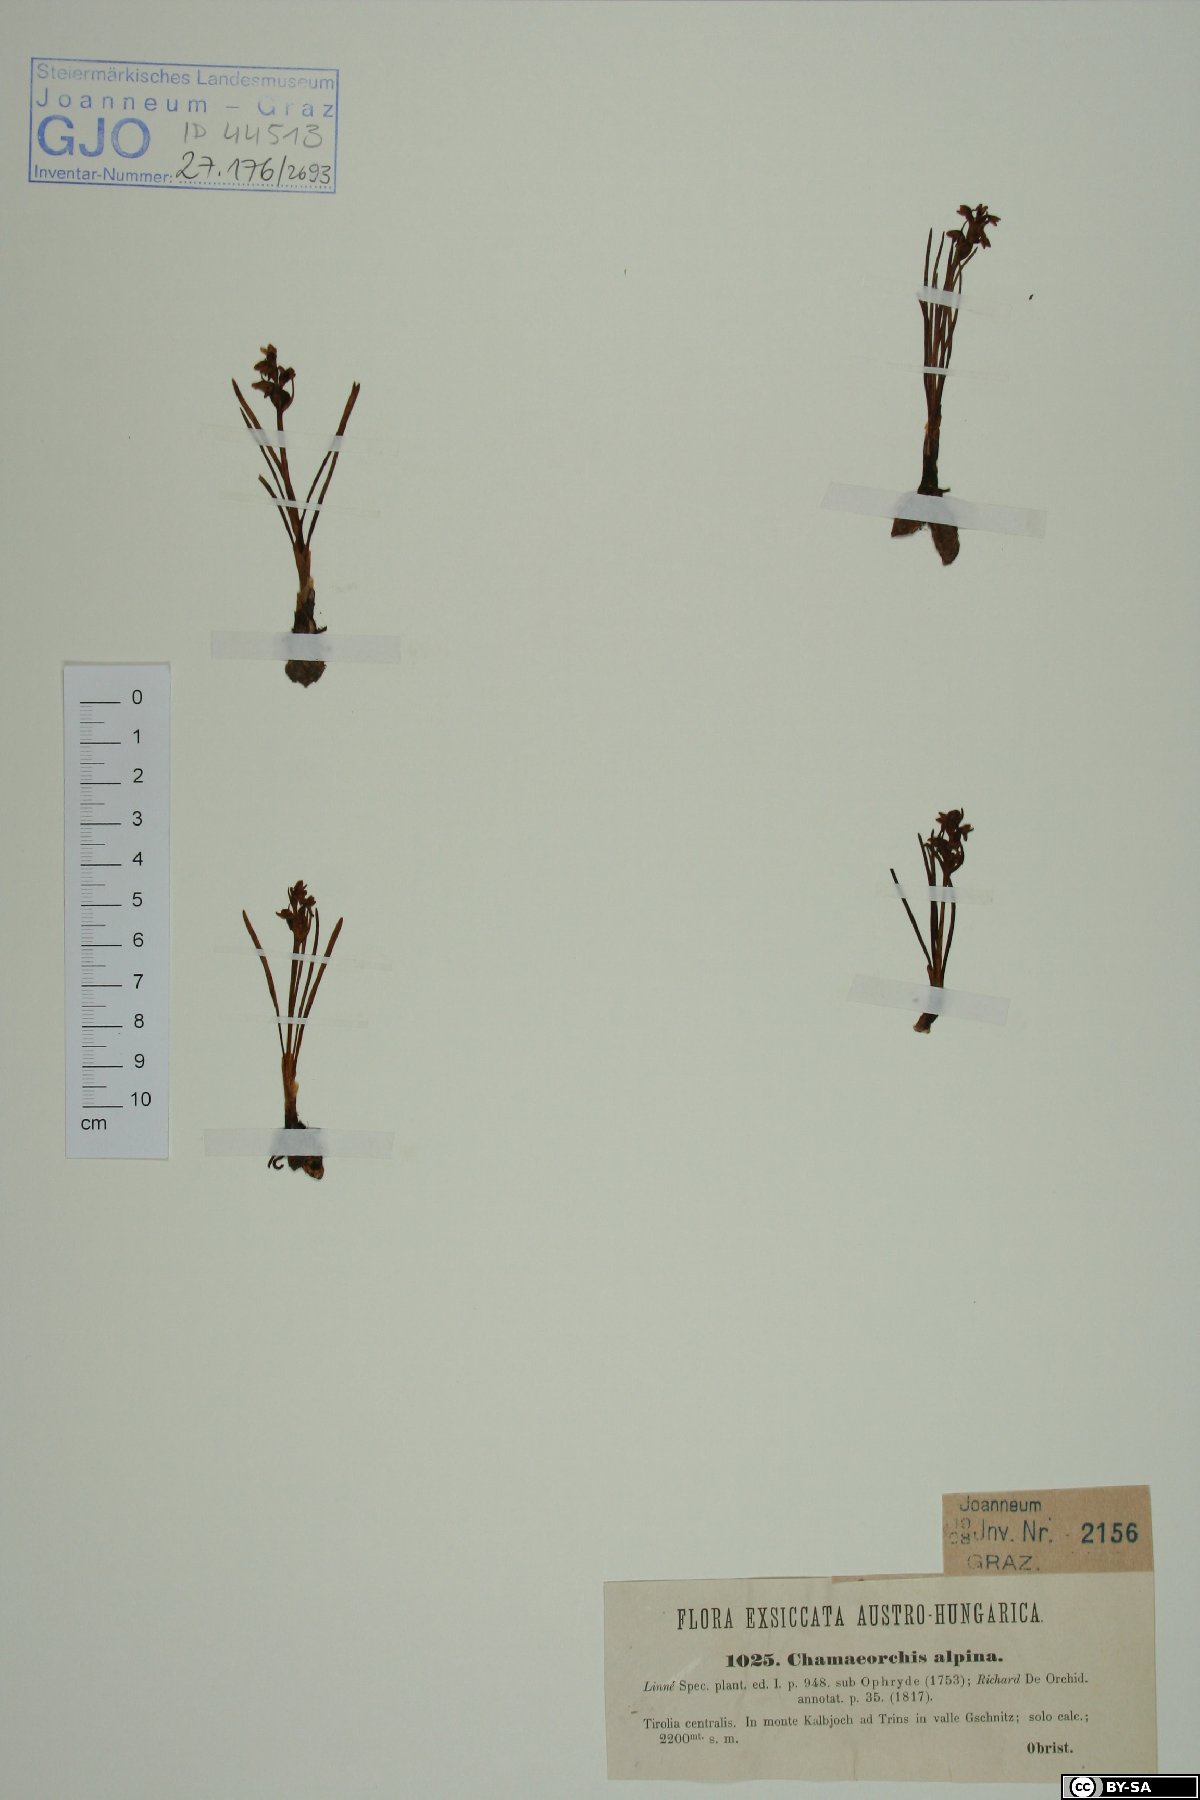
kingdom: Plantae
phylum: Tracheophyta
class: Liliopsida
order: Asparagales
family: Orchidaceae
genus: Chamorchis
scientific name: Chamorchis alpina
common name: Alpine chamorchis
